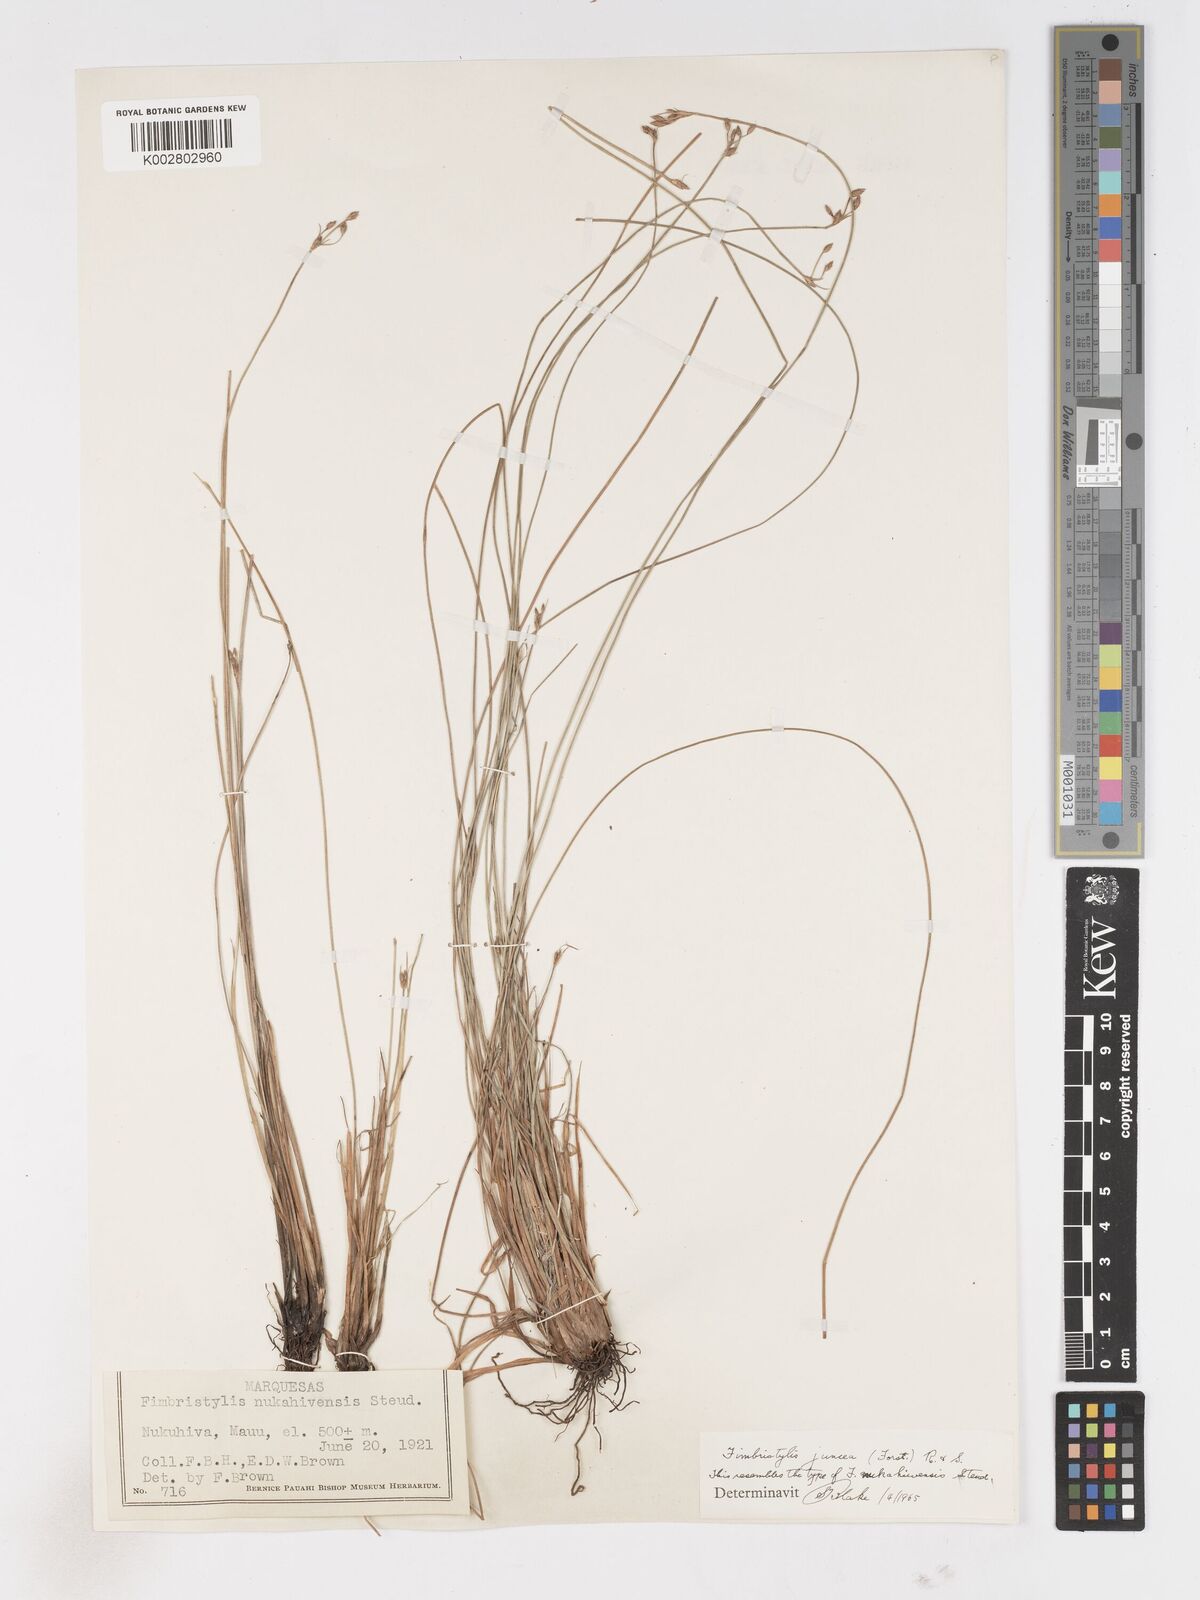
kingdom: Plantae
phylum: Tracheophyta
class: Liliopsida
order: Poales
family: Cyperaceae
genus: Fimbristylis
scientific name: Fimbristylis juncea
